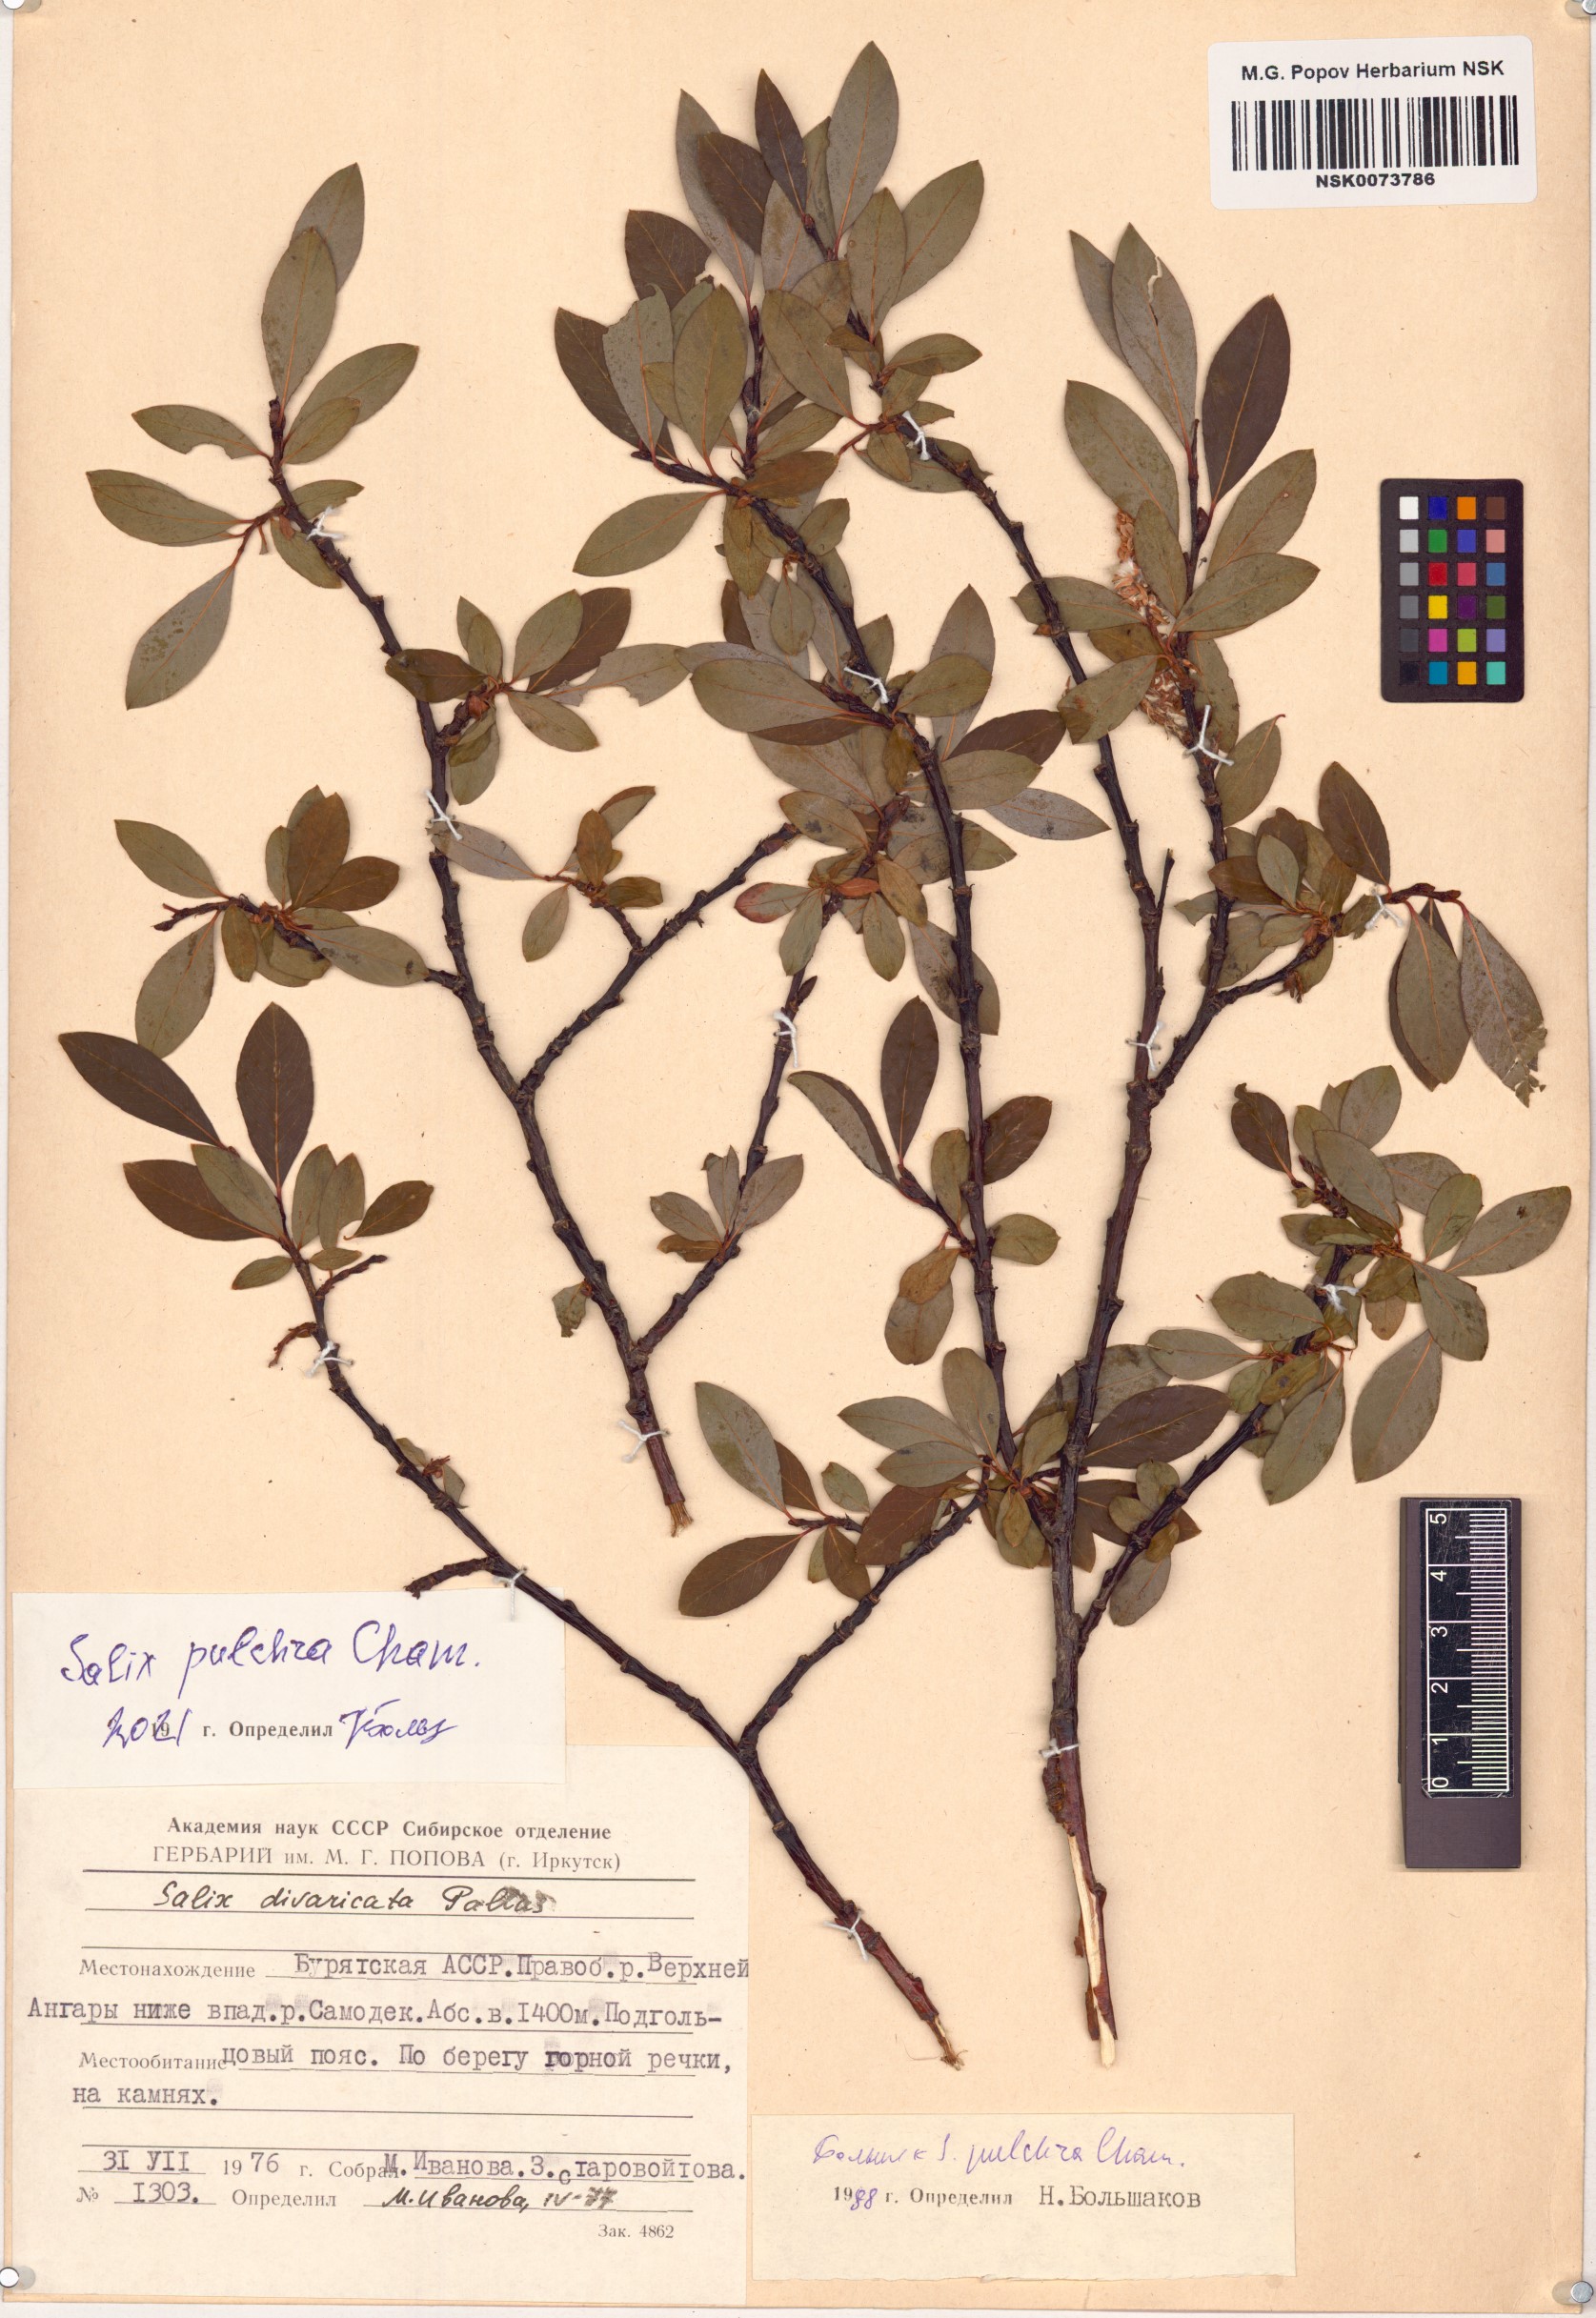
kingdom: Plantae
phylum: Tracheophyta
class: Magnoliopsida
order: Malpighiales
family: Salicaceae
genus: Salix
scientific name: Salix pulchra
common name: Diamond-leaved willow
